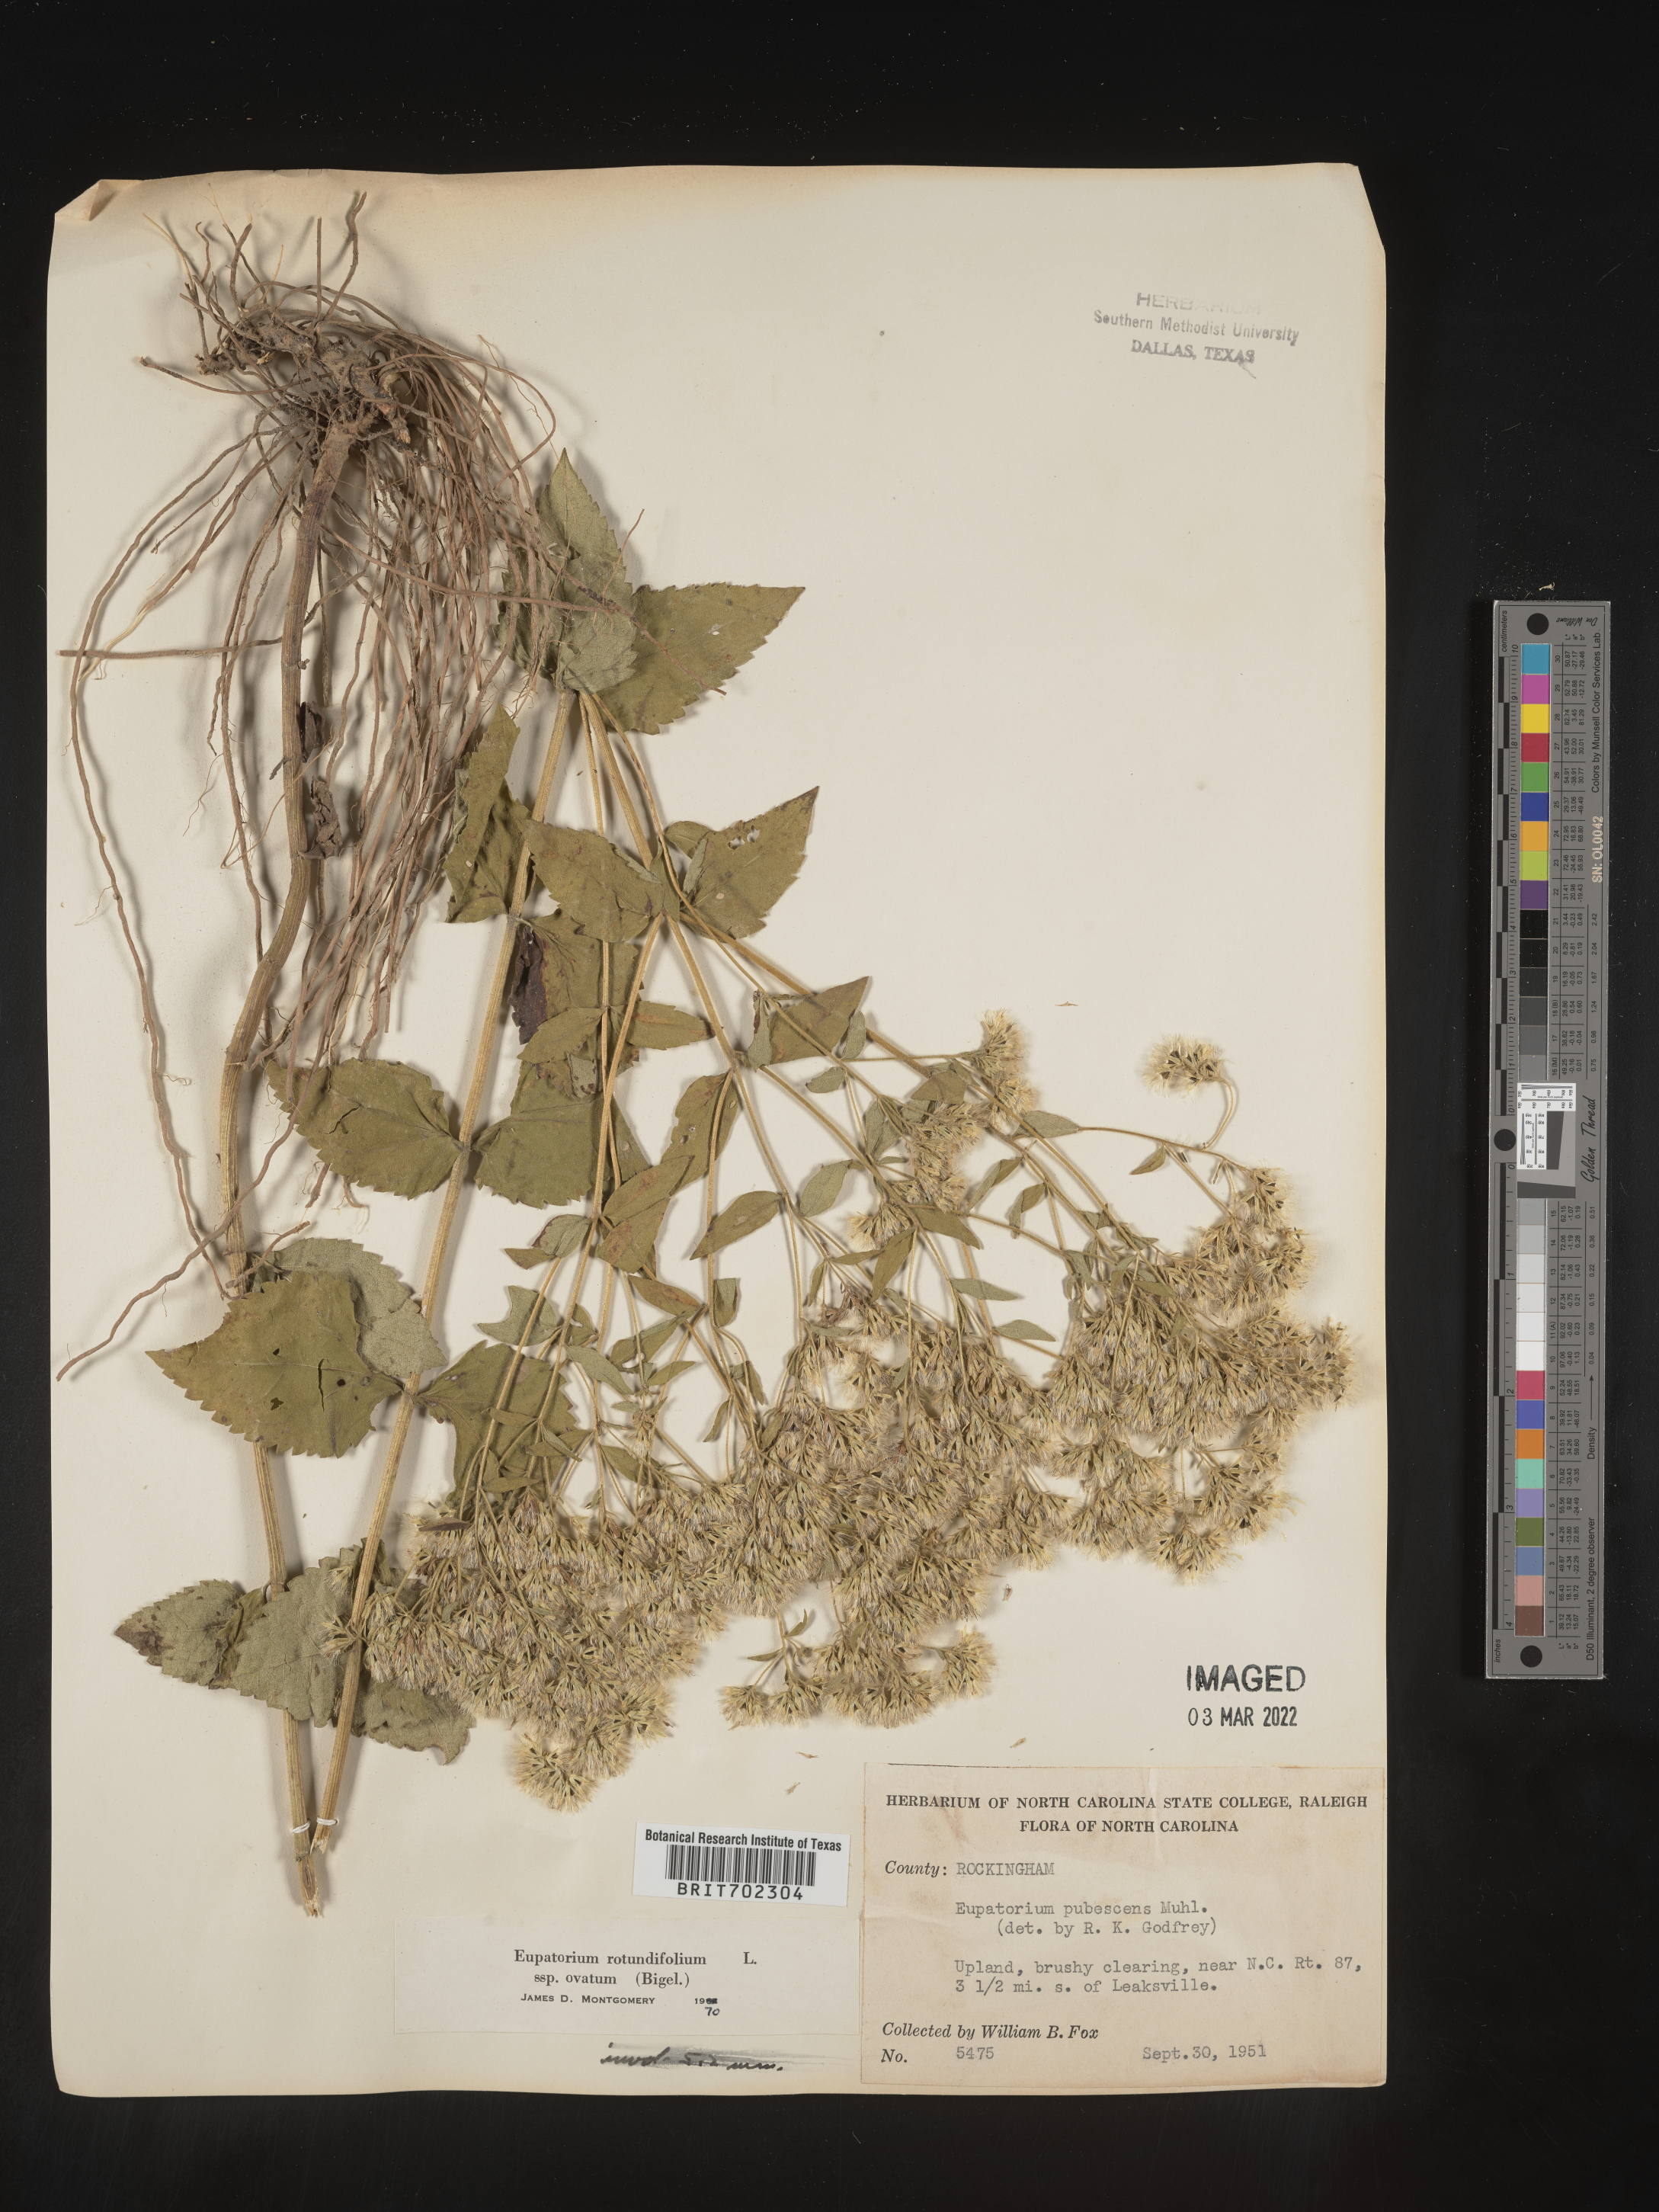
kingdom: Plantae
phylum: Tracheophyta
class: Magnoliopsida
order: Asterales
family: Asteraceae
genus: Eupatorium
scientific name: Eupatorium rotundifolium
